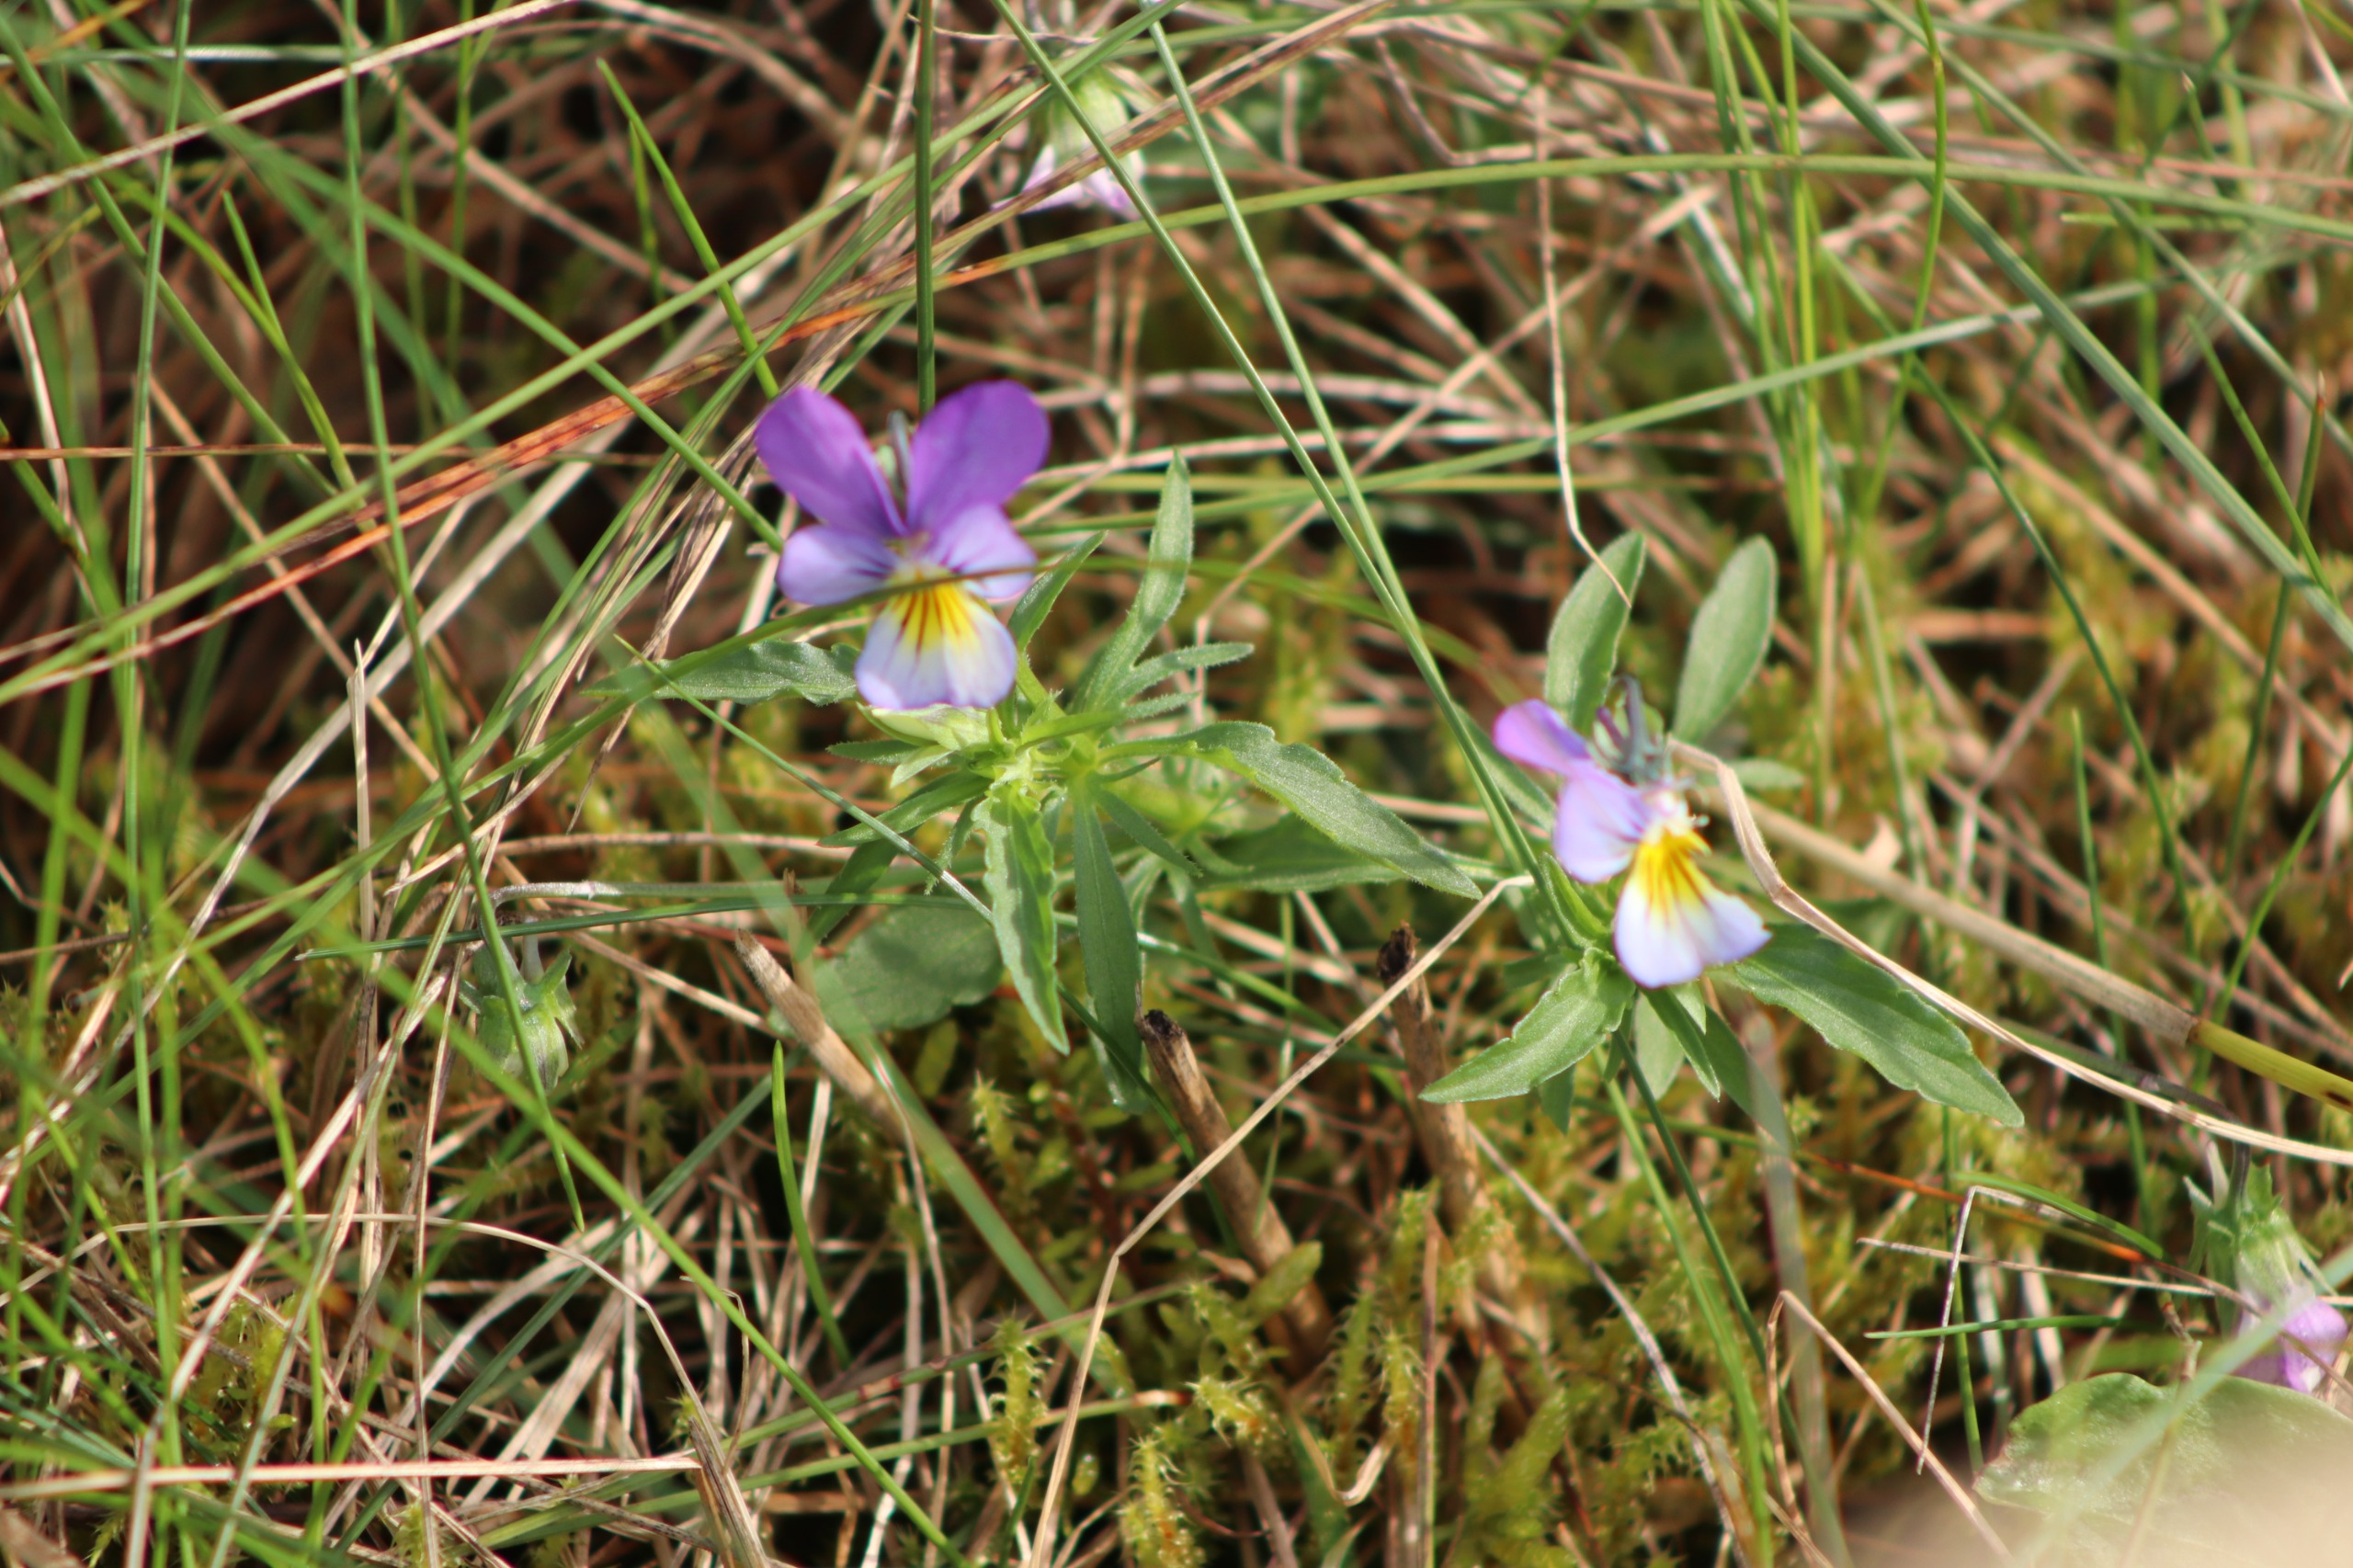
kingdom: Plantae
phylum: Tracheophyta
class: Magnoliopsida
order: Malpighiales
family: Violaceae
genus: Viola
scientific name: Viola tricolor
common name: Stedmoderblomst
